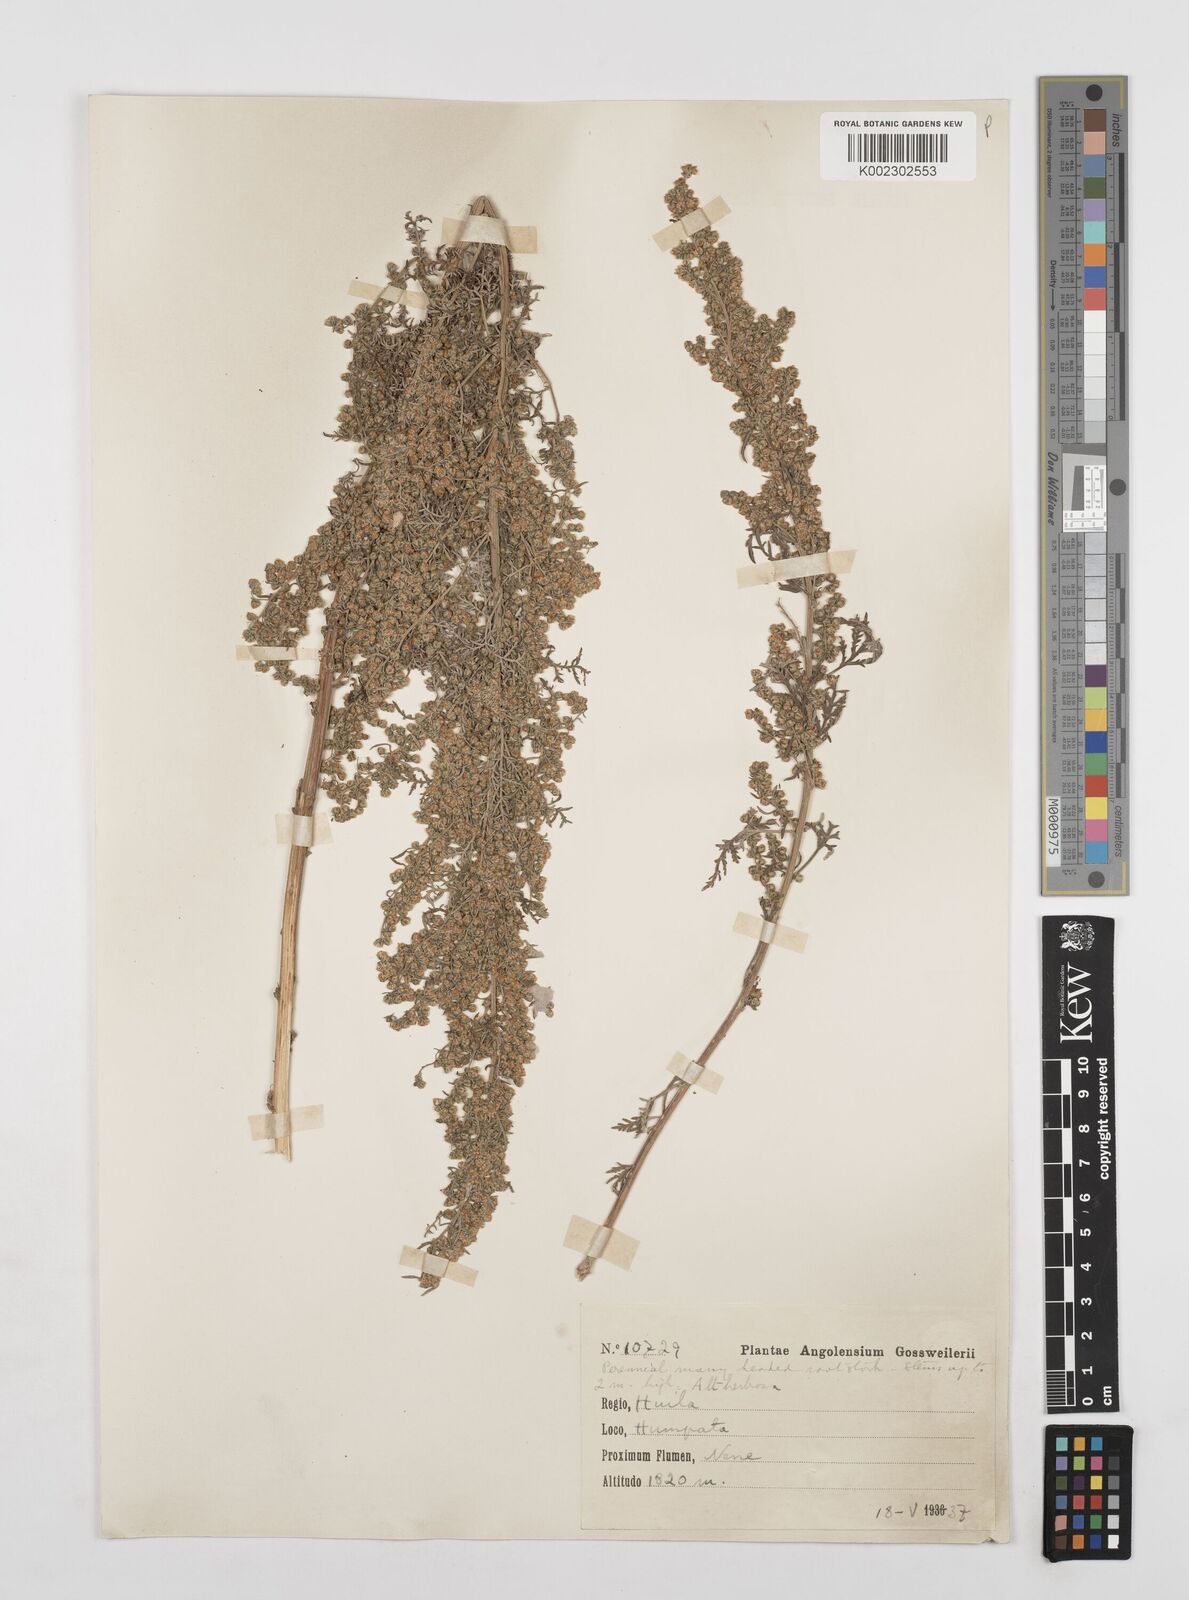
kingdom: Plantae
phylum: Tracheophyta
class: Magnoliopsida
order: Asterales
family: Asteraceae
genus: Artemisia
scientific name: Artemisia afra
